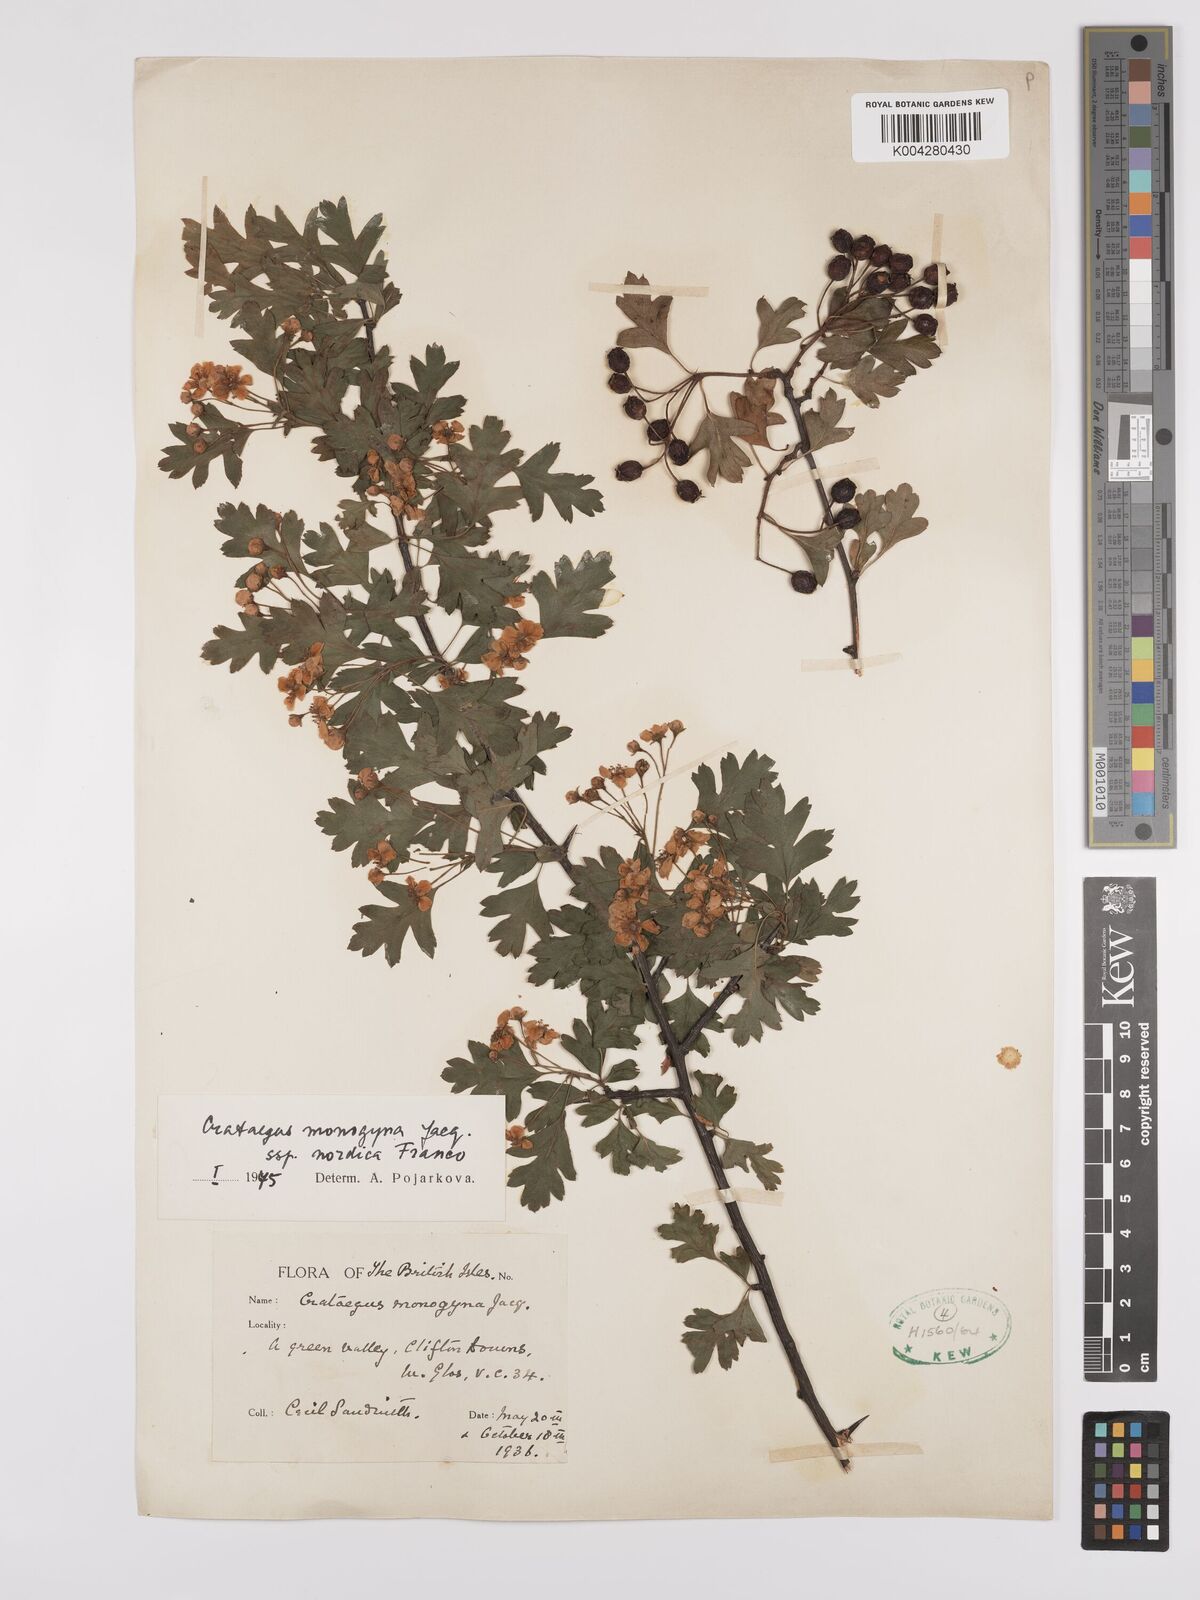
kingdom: Plantae
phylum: Tracheophyta
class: Magnoliopsida
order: Rosales
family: Rosaceae
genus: Crataegus
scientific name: Crataegus monogyna
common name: Hawthorn
